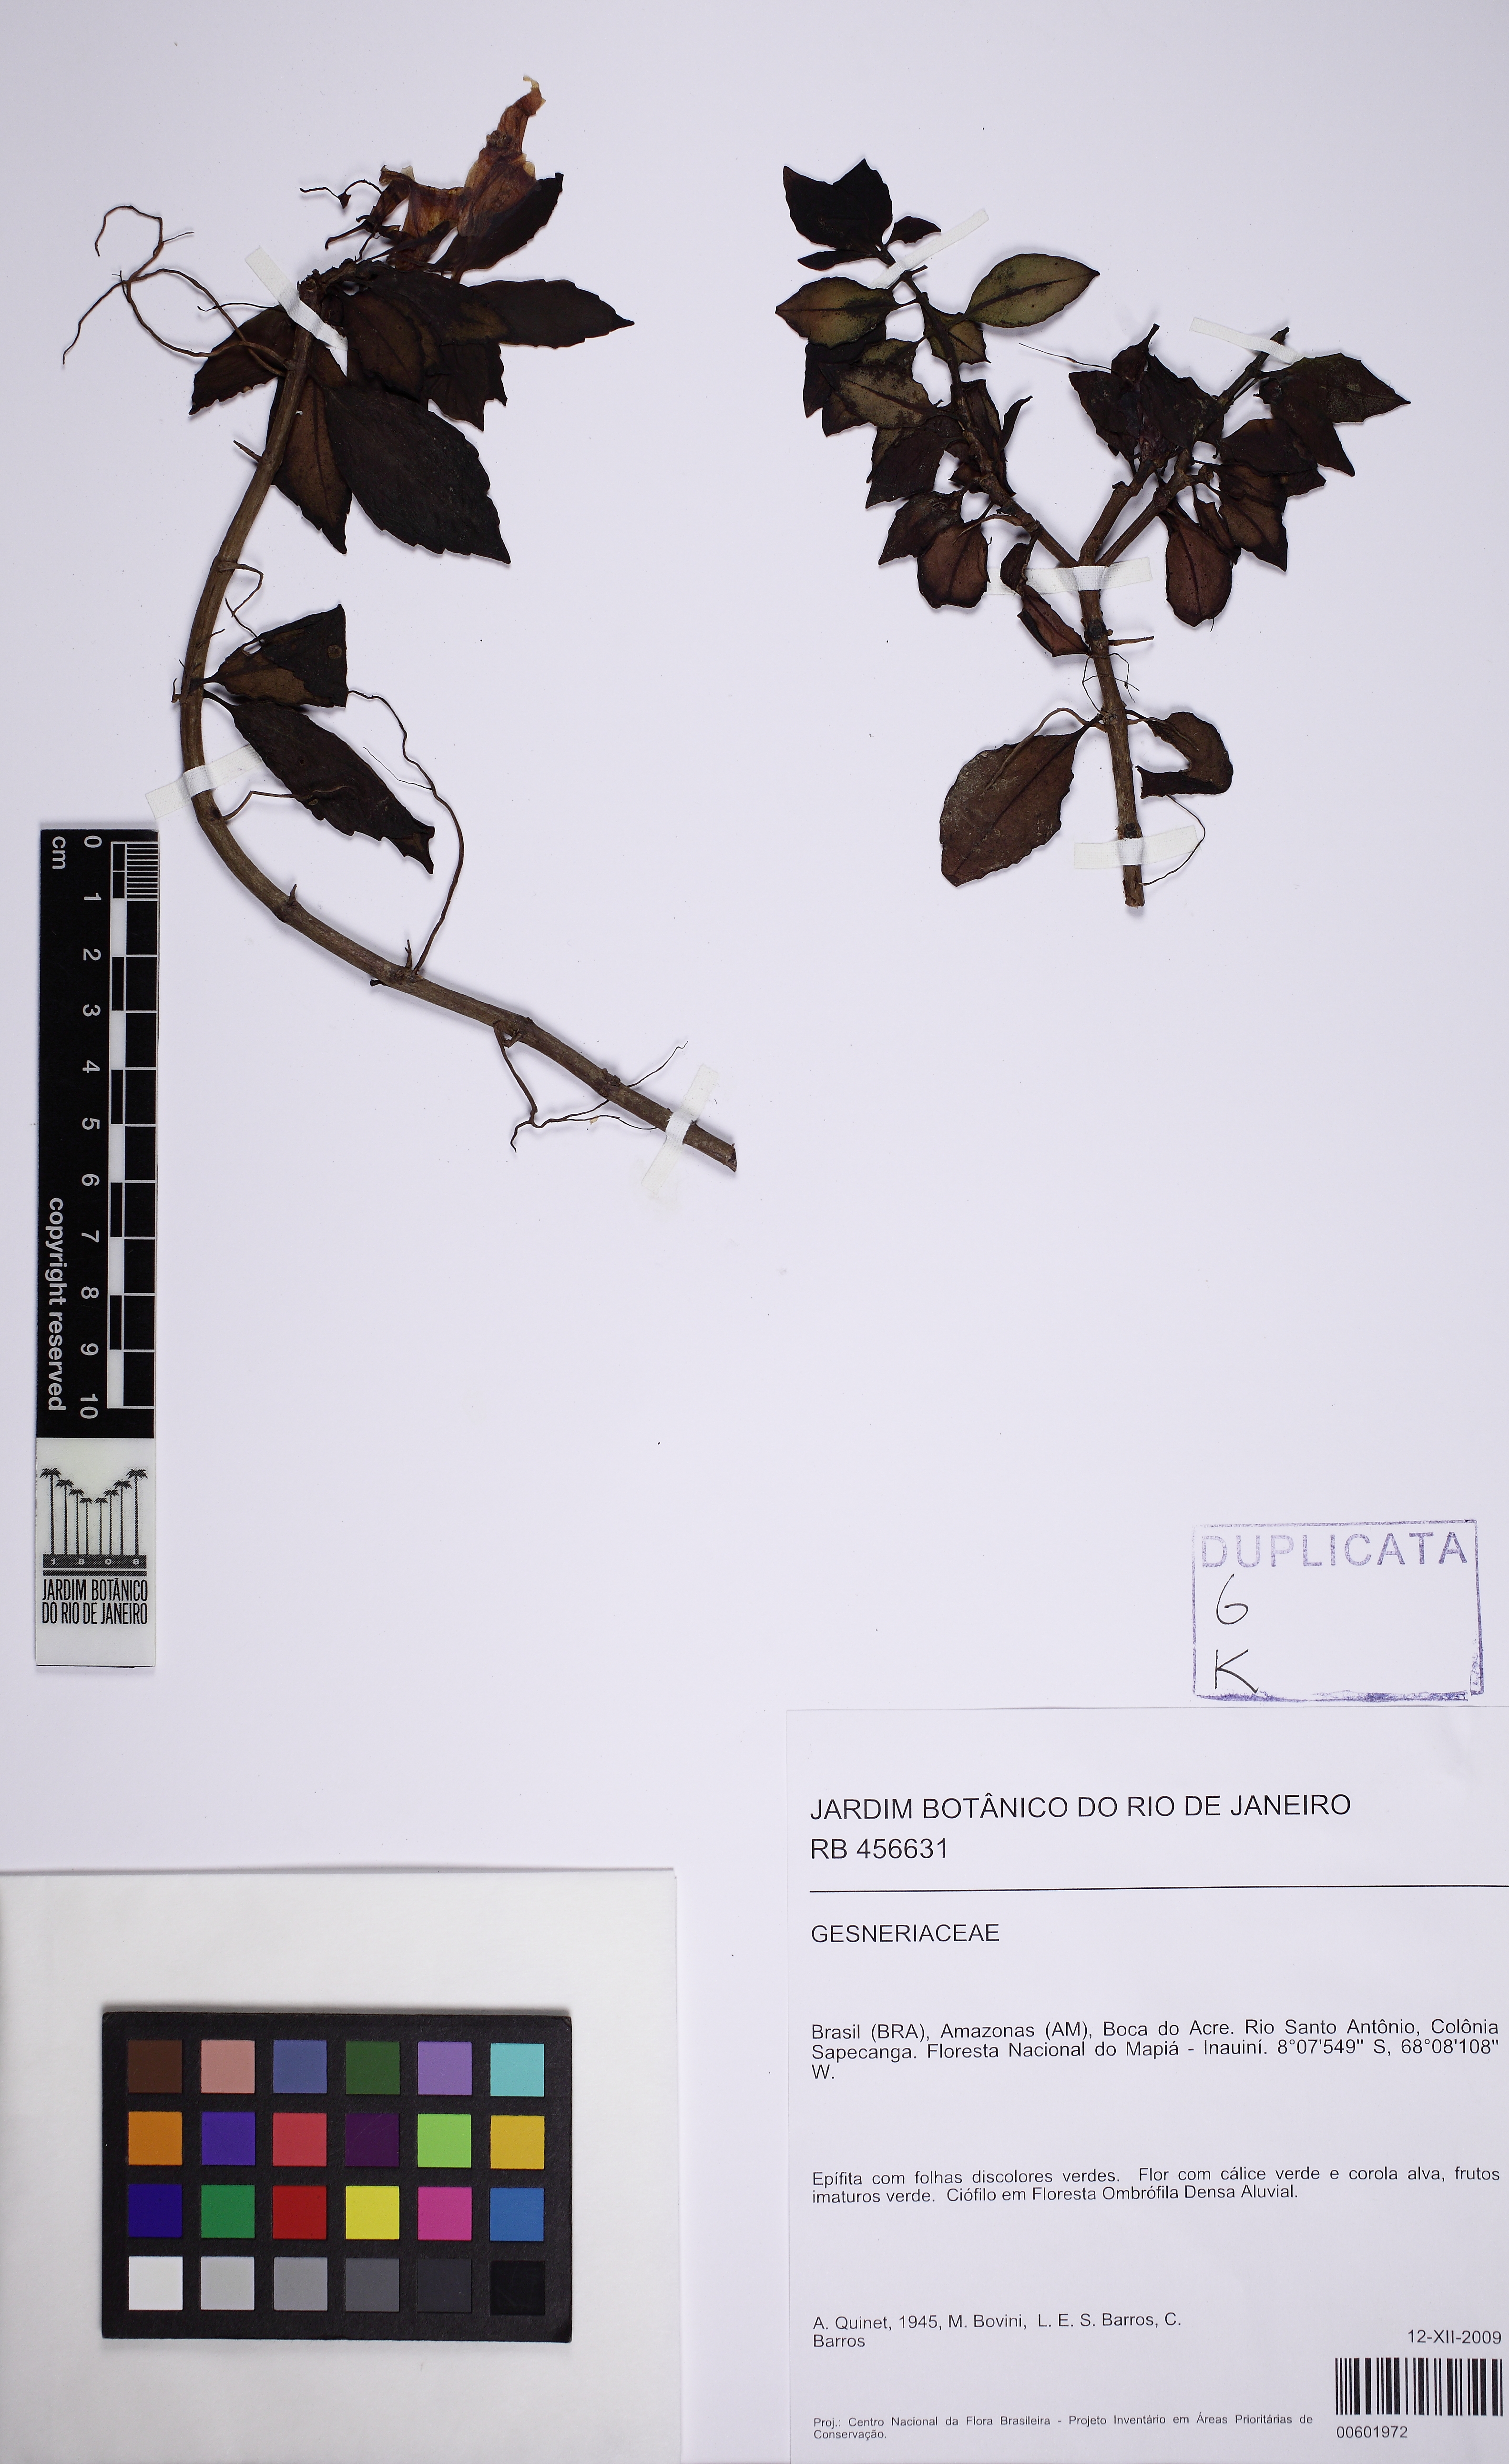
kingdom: Plantae
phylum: Tracheophyta
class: Magnoliopsida
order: Lamiales
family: Gesneriaceae
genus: Codonanthopsis
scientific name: Codonanthopsis
